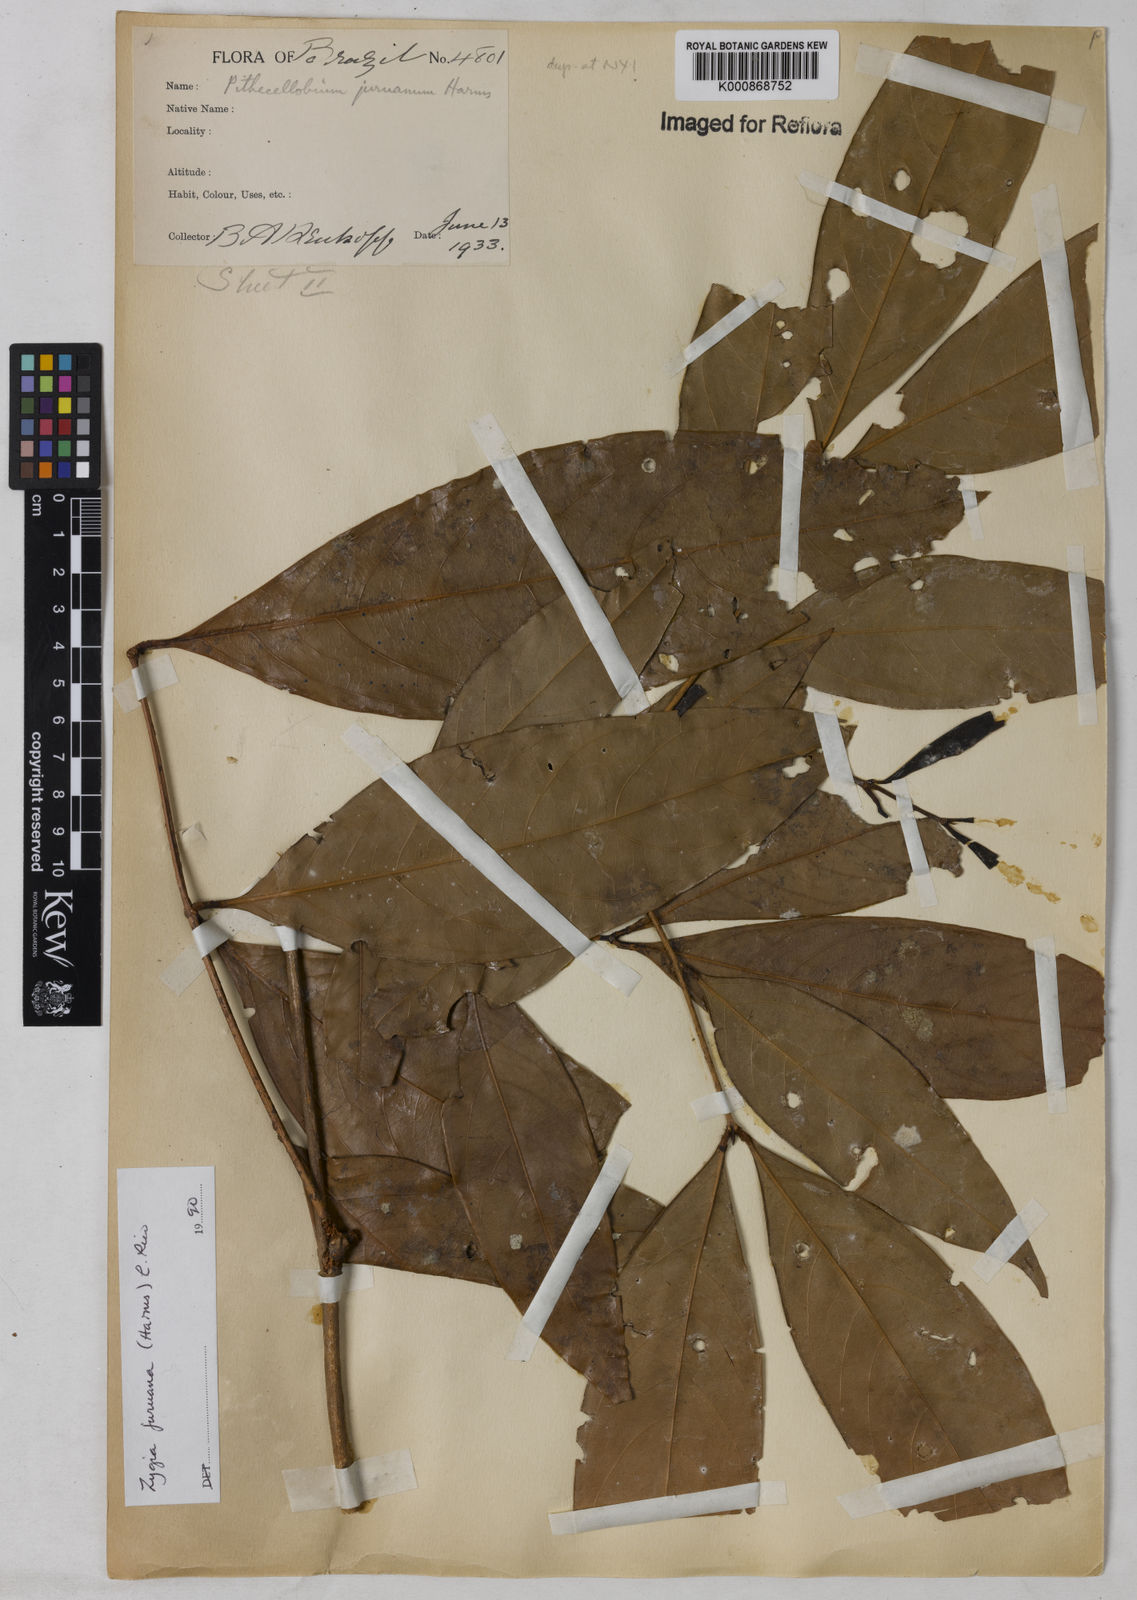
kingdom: Plantae
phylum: Tracheophyta
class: Magnoliopsida
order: Fabales
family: Fabaceae
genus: Zygia
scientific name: Zygia juruana
